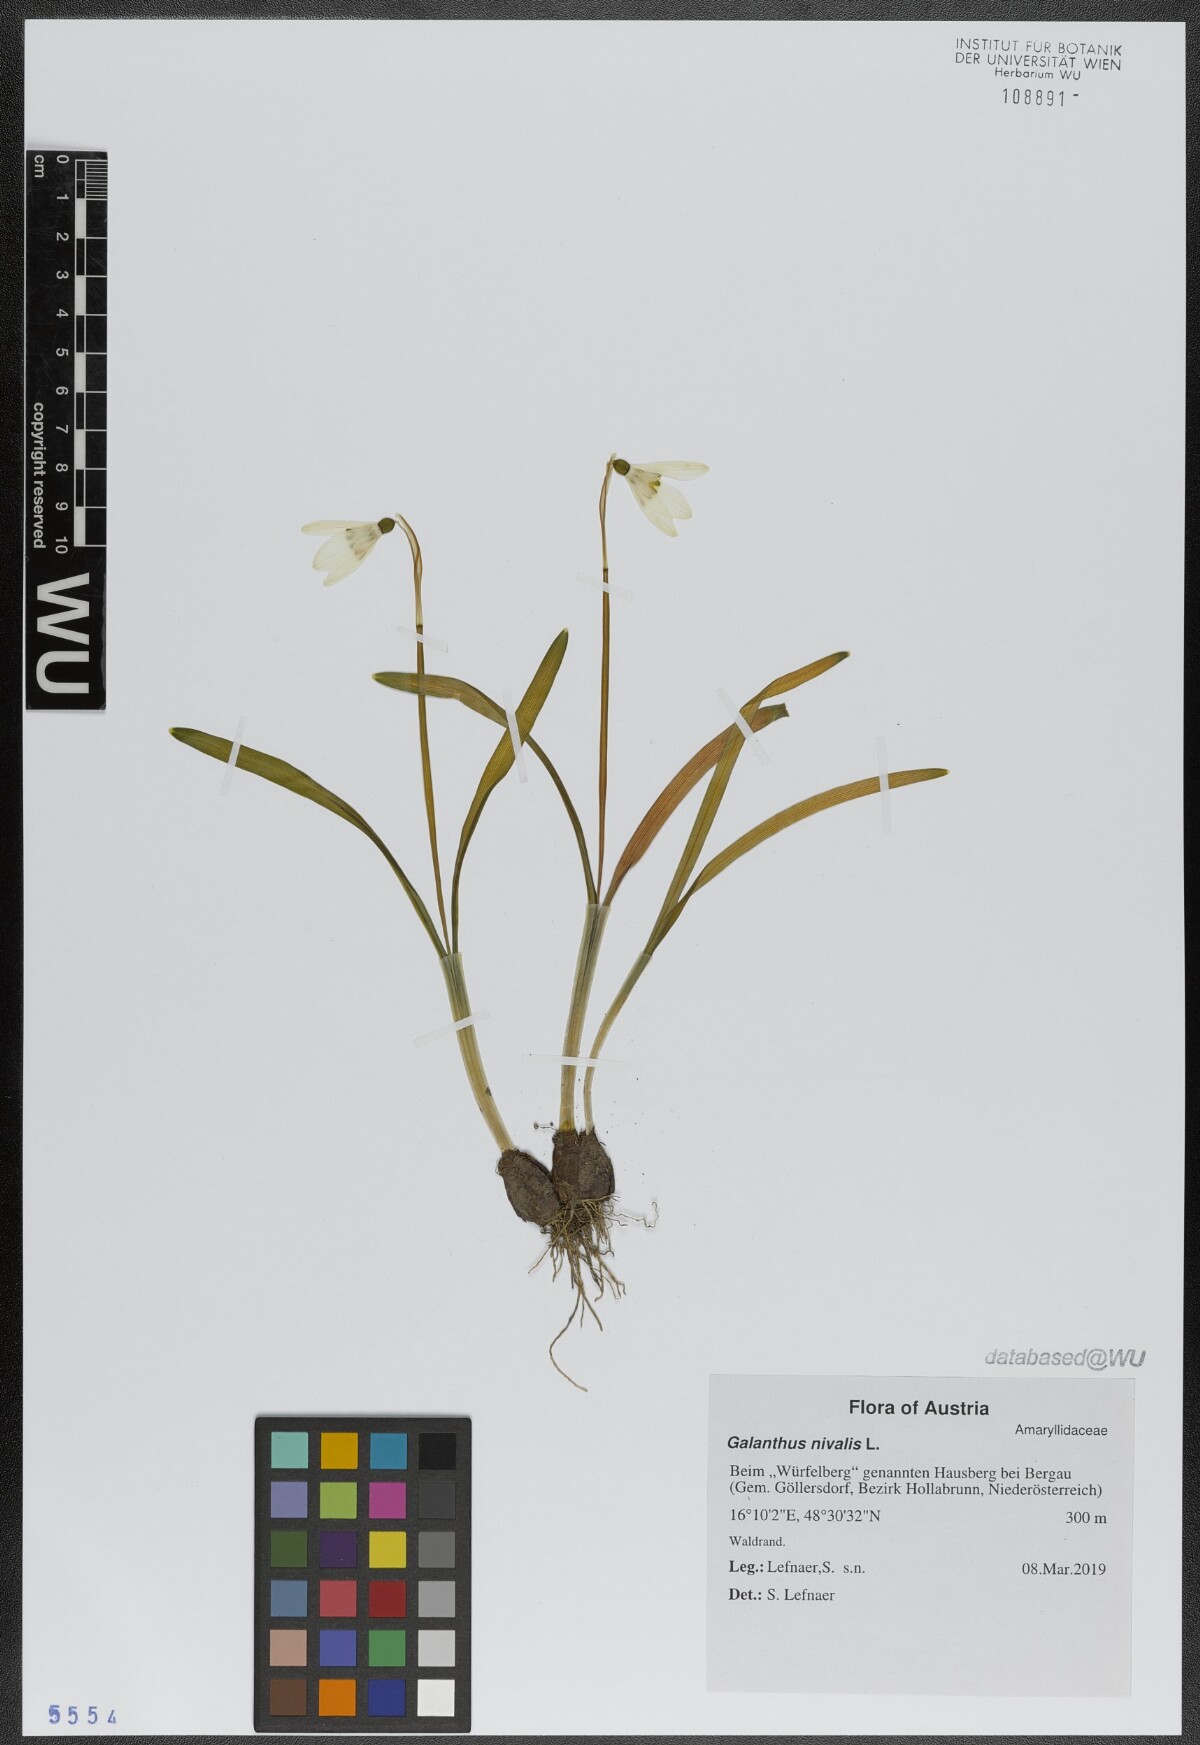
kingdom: Plantae
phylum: Tracheophyta
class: Liliopsida
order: Asparagales
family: Amaryllidaceae
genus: Galanthus
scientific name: Galanthus nivalis
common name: Snowdrop
